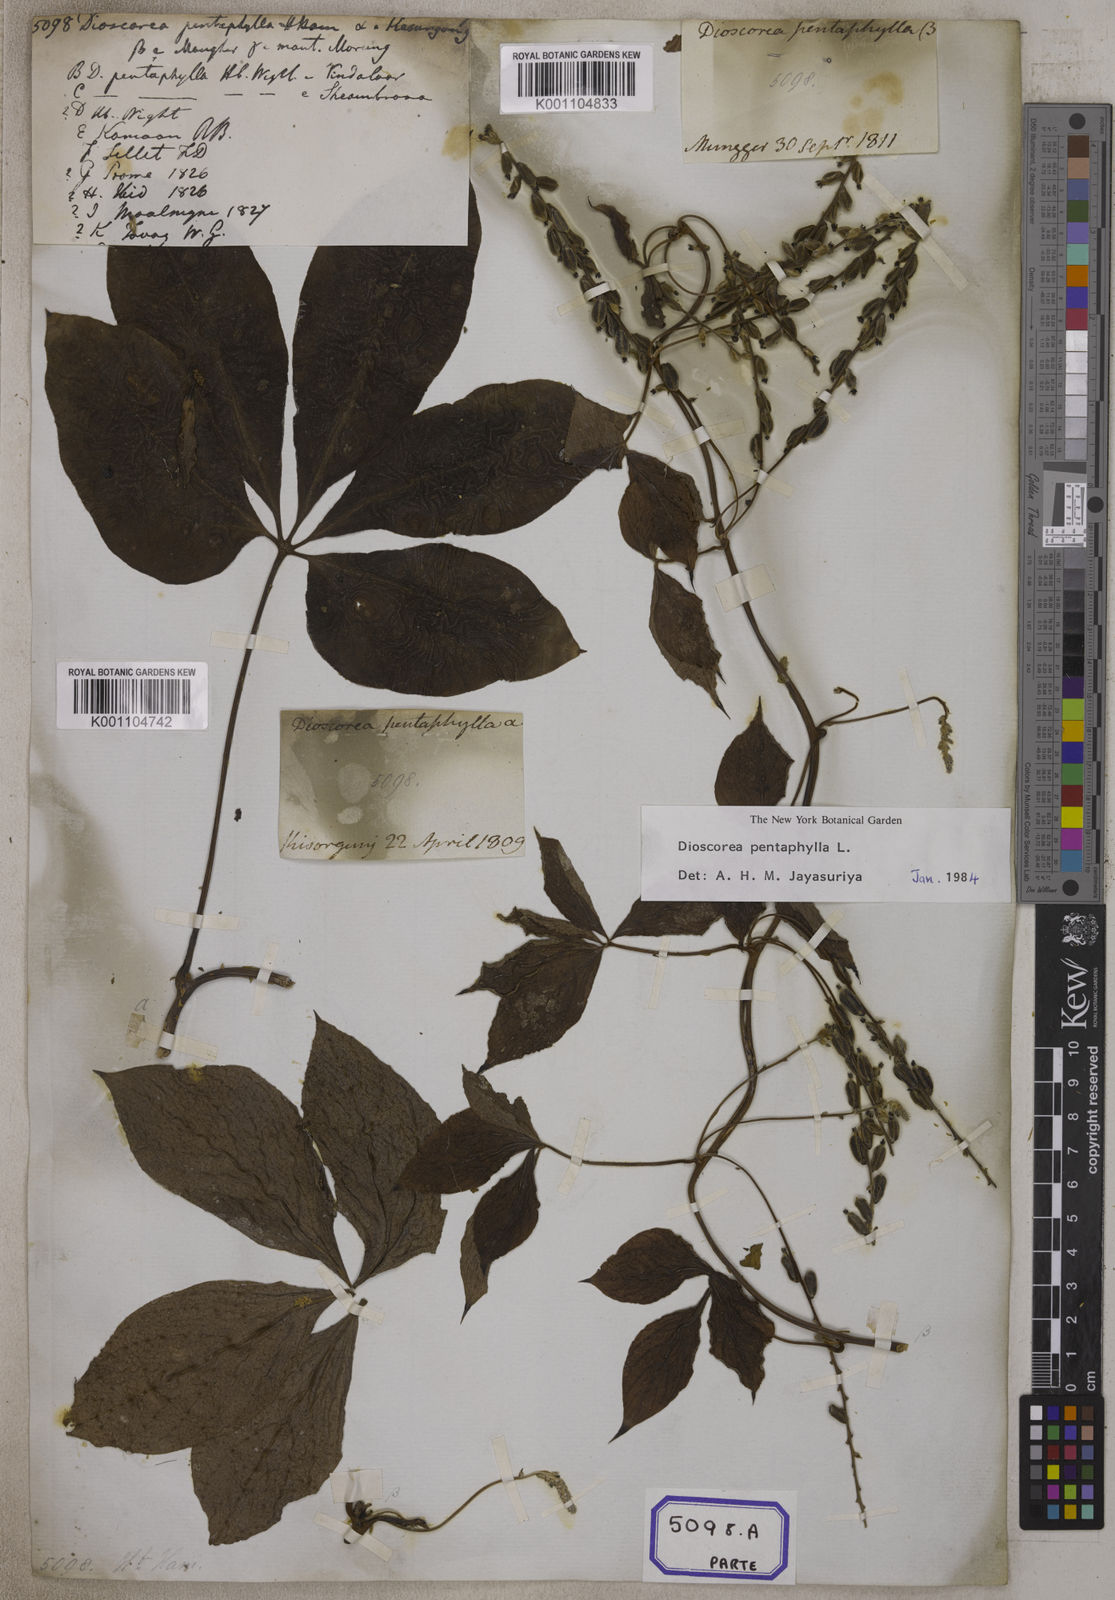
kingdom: Plantae
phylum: Tracheophyta
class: Liliopsida
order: Dioscoreales
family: Dioscoreaceae
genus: Dioscorea
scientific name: Dioscorea
